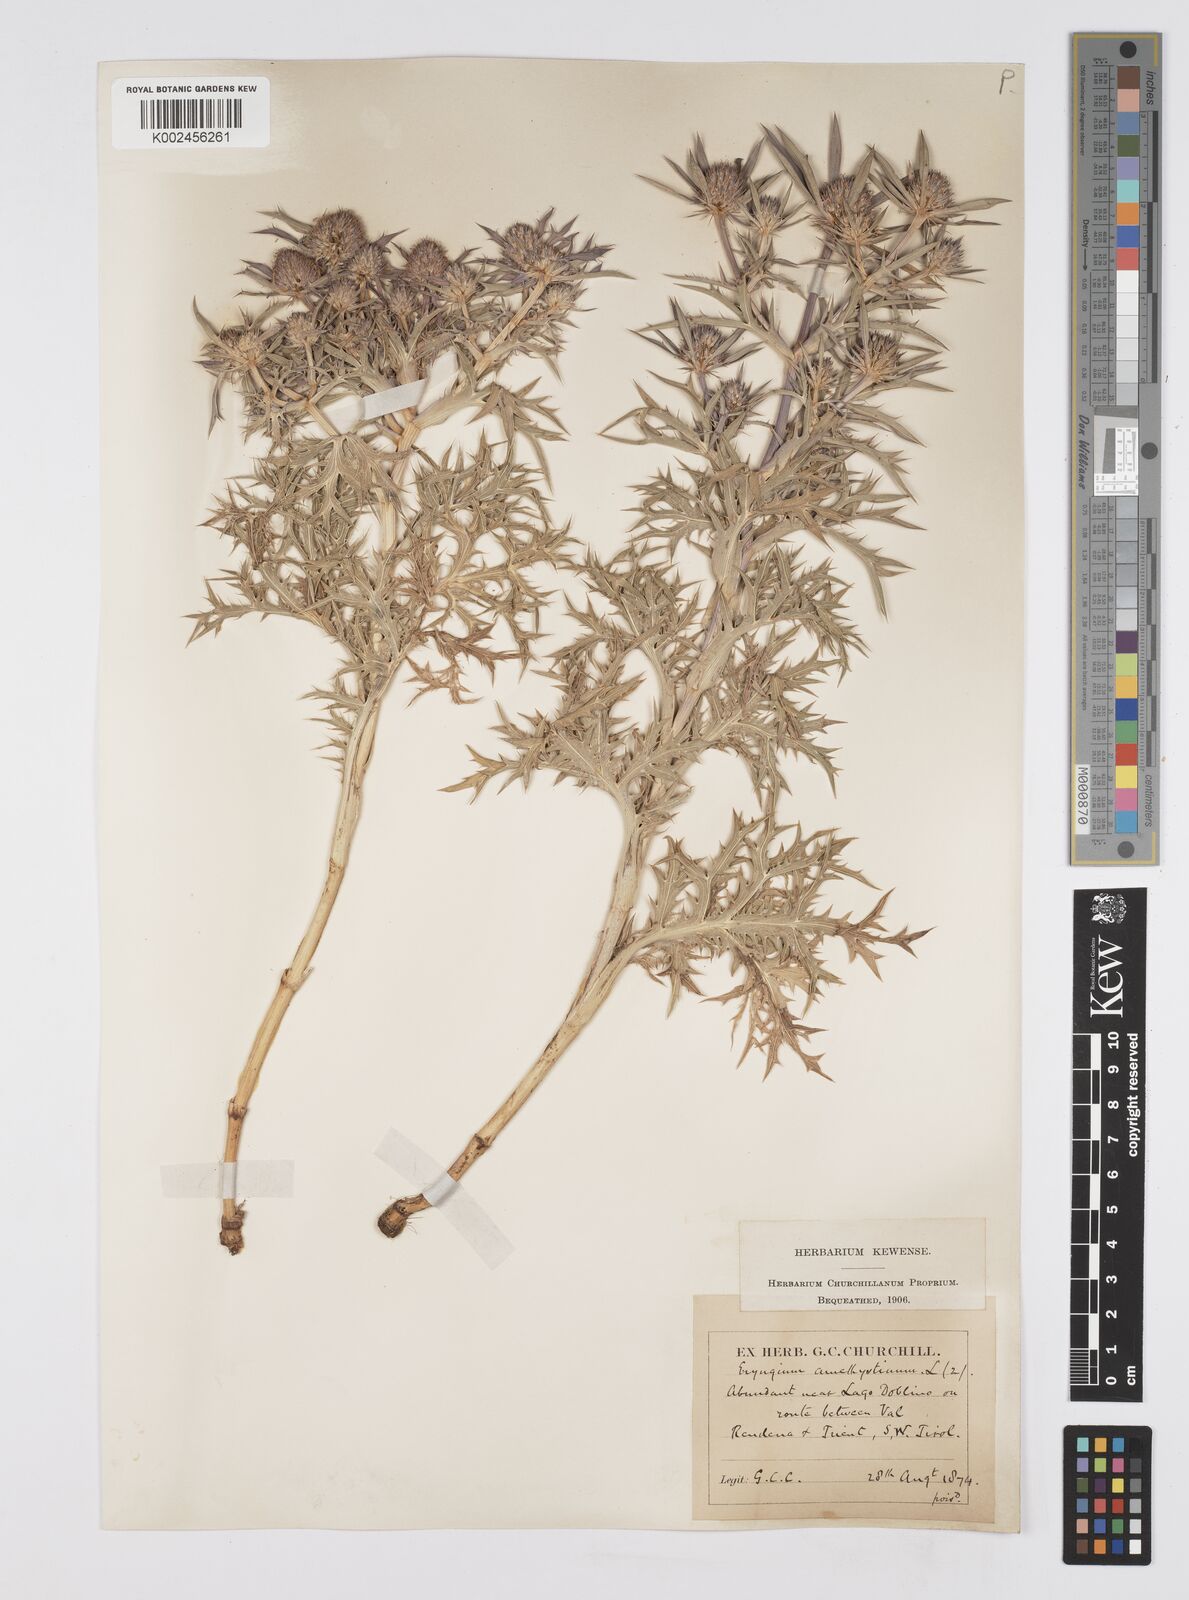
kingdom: Plantae
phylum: Tracheophyta
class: Magnoliopsida
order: Apiales
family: Apiaceae
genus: Eryngium
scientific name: Eryngium amethystinum
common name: Amethyst eryngo
